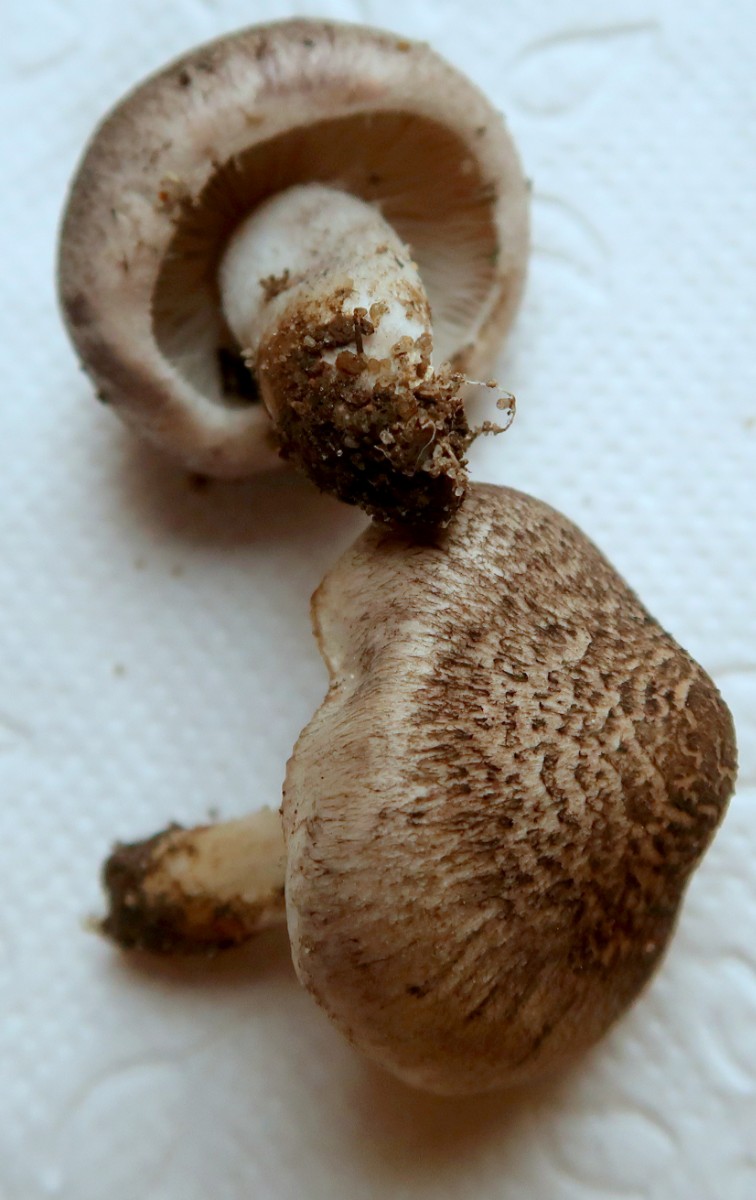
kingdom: Fungi
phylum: Basidiomycota
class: Agaricomycetes
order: Agaricales
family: Tricholomataceae
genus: Tricholoma
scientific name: Tricholoma scalpturatum
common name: gulplettet ridderhat
